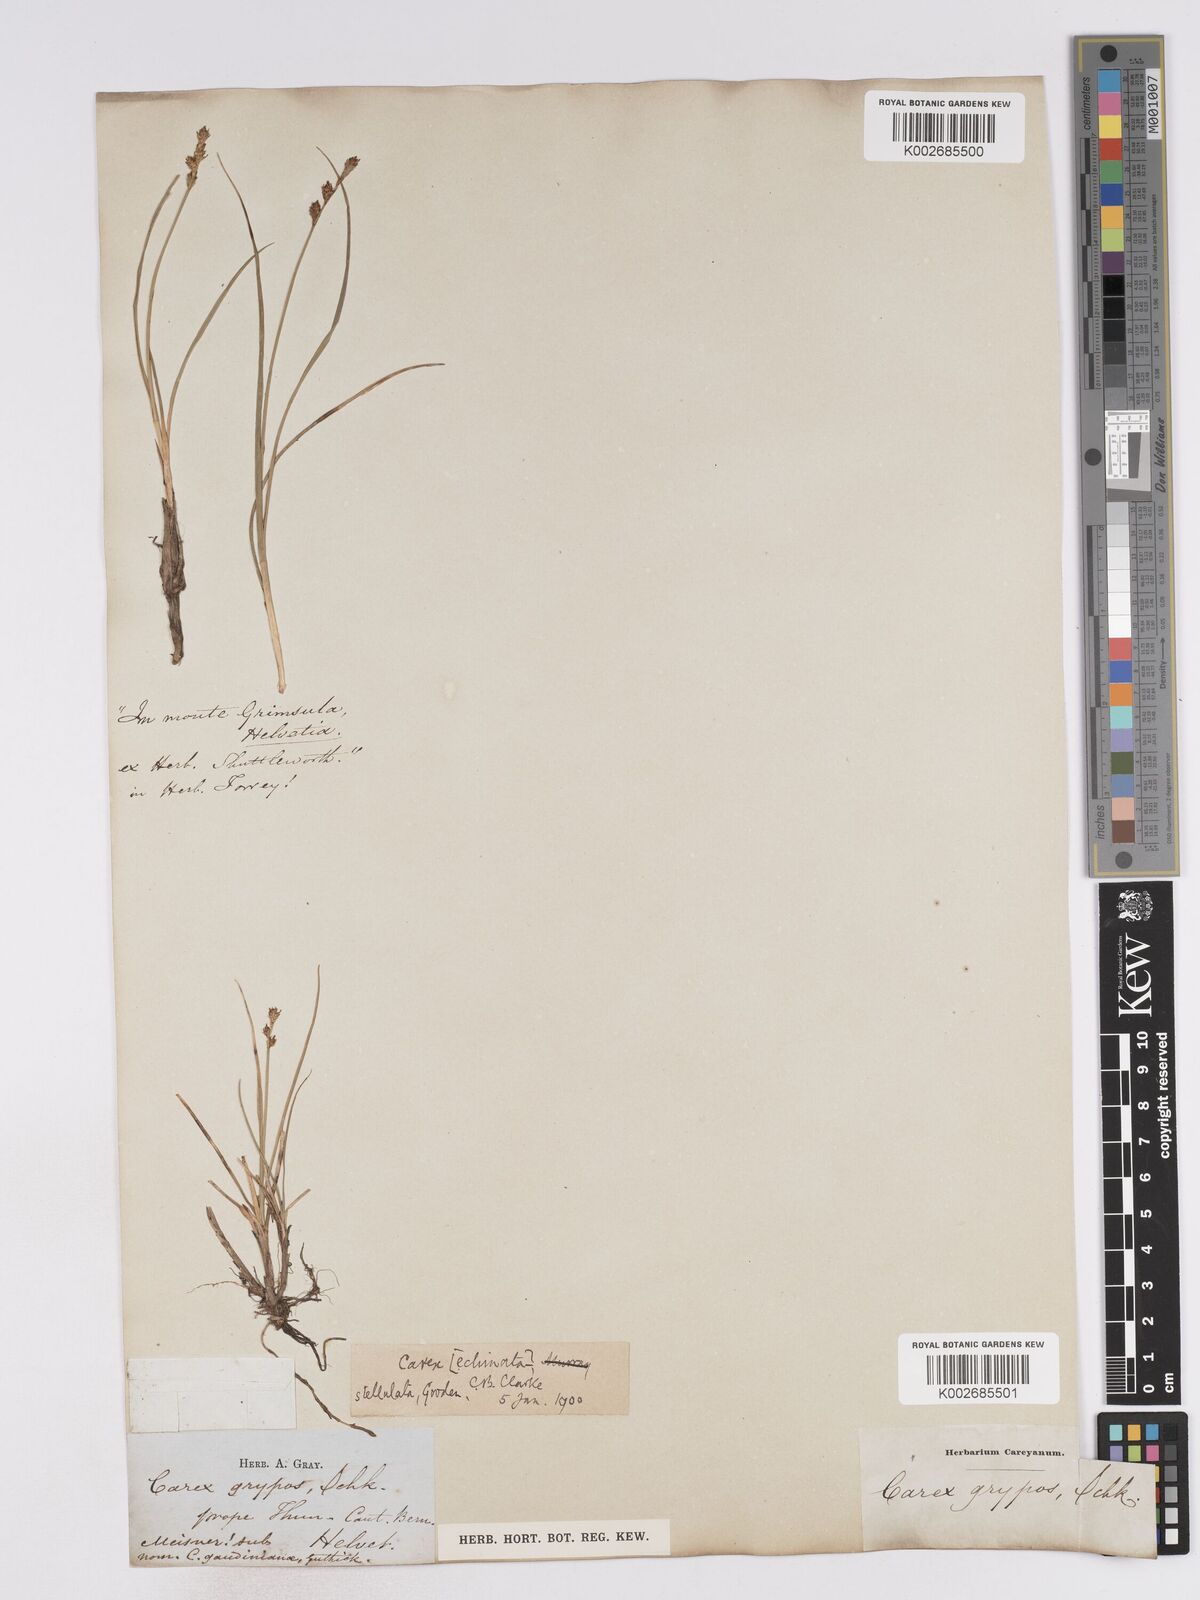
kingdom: Plantae
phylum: Tracheophyta
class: Liliopsida
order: Poales
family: Cyperaceae
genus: Carex
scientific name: Carex echinata
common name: Star sedge
